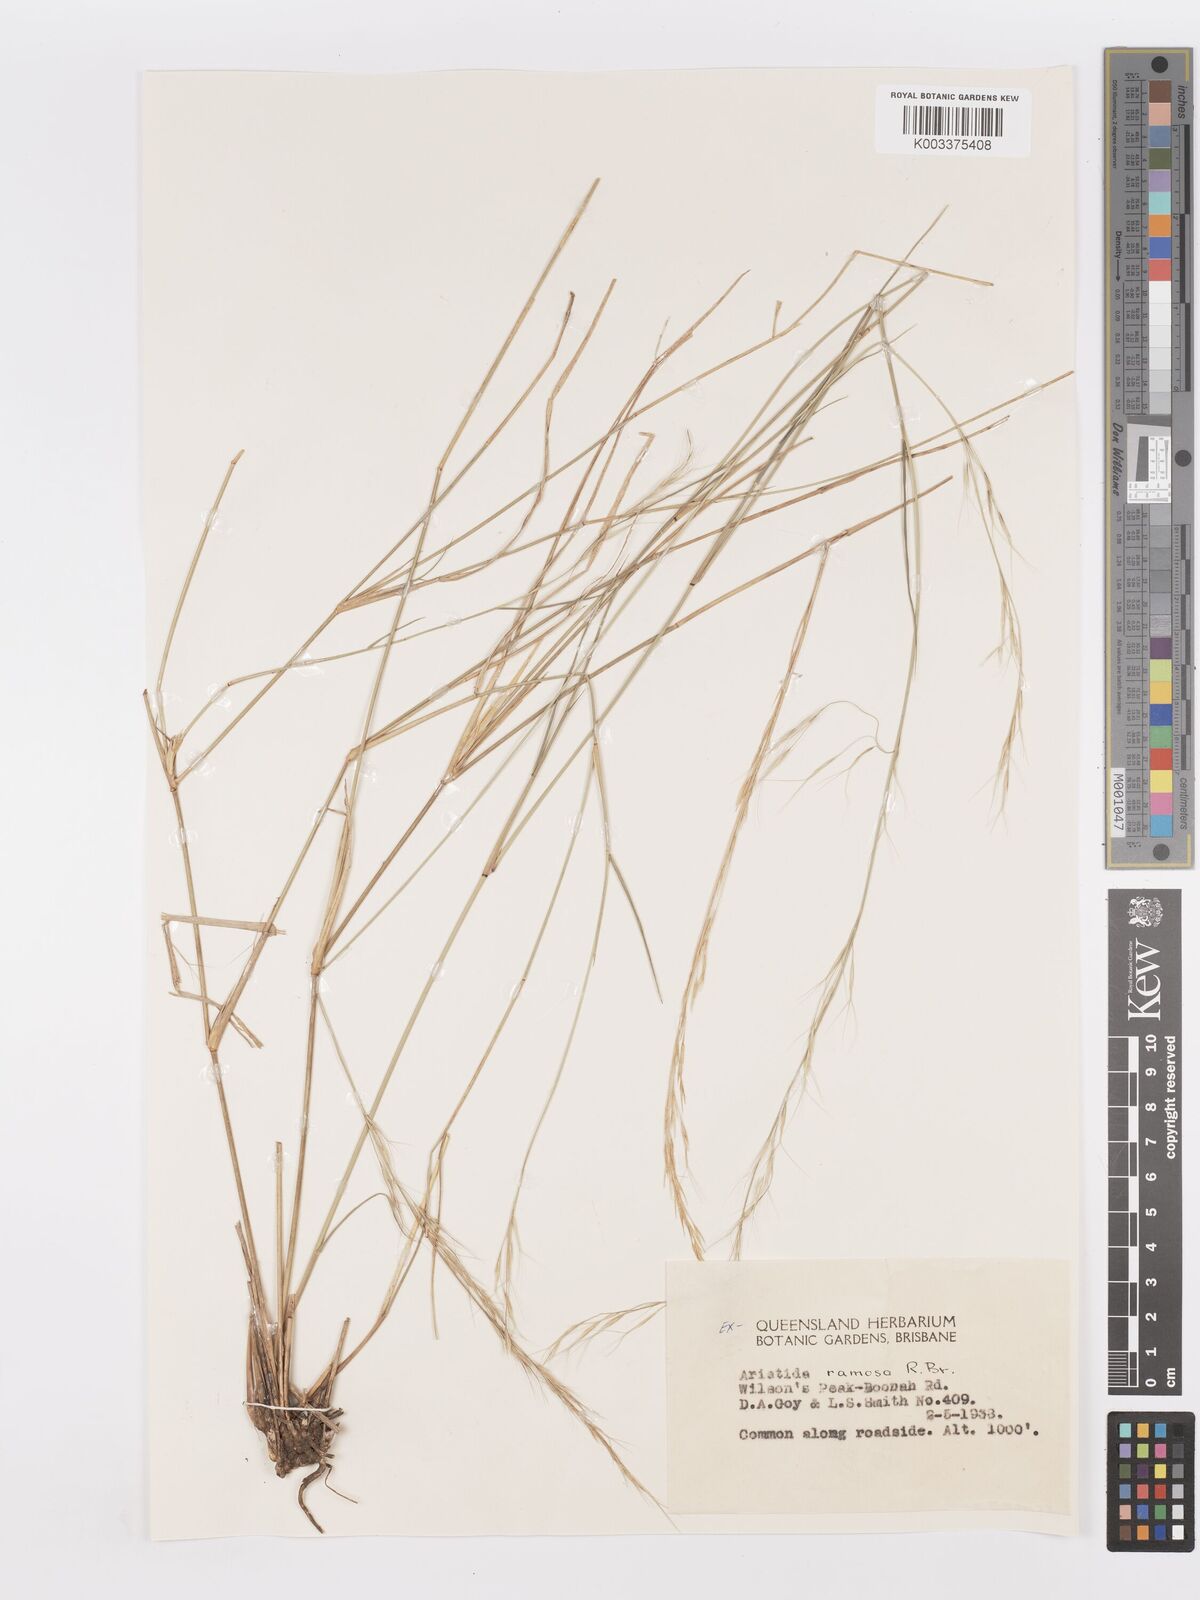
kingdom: Plantae
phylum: Tracheophyta
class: Liliopsida
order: Poales
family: Poaceae
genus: Aristida
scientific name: Aristida ramosa
